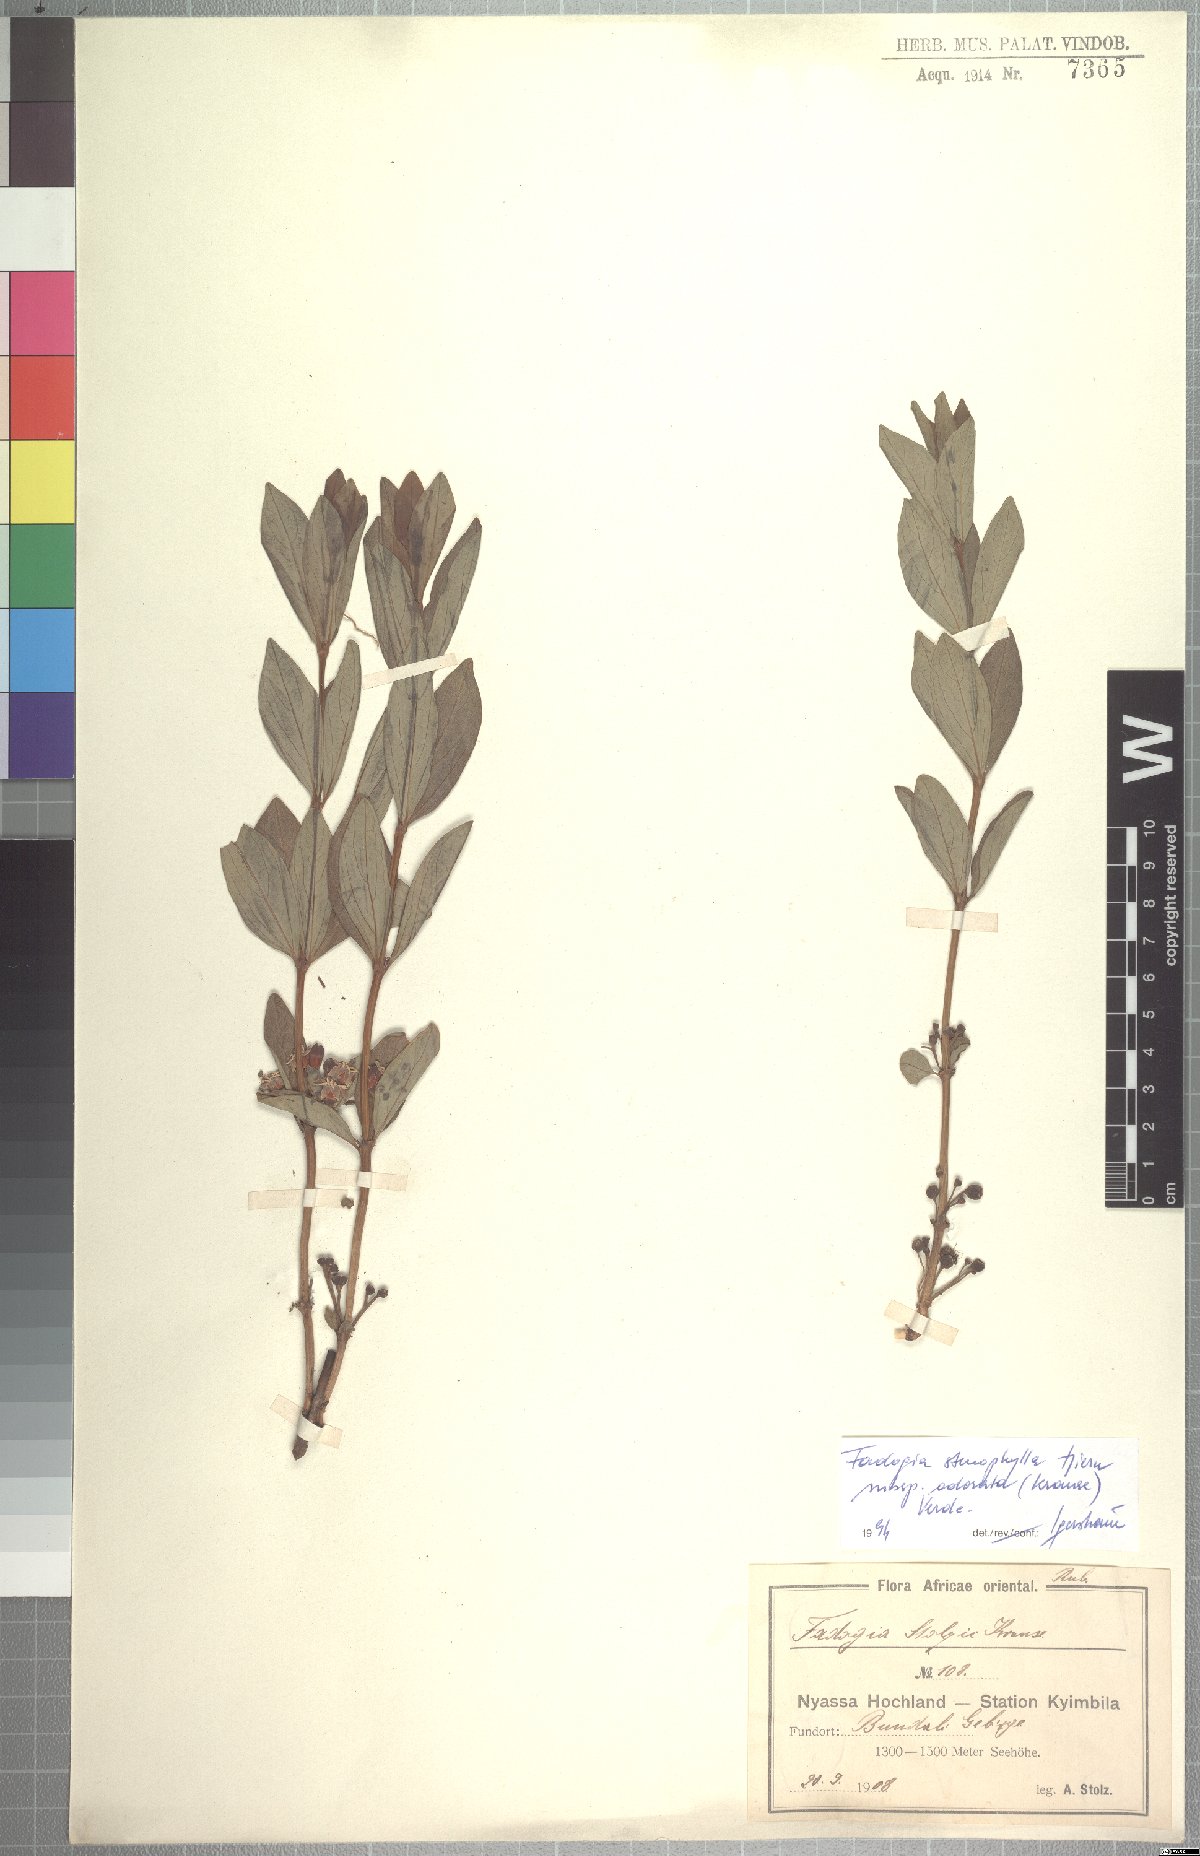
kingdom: Plantae
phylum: Tracheophyta
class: Magnoliopsida
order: Gentianales
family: Rubiaceae
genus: Fadogia
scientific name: Fadogia stenophylla
